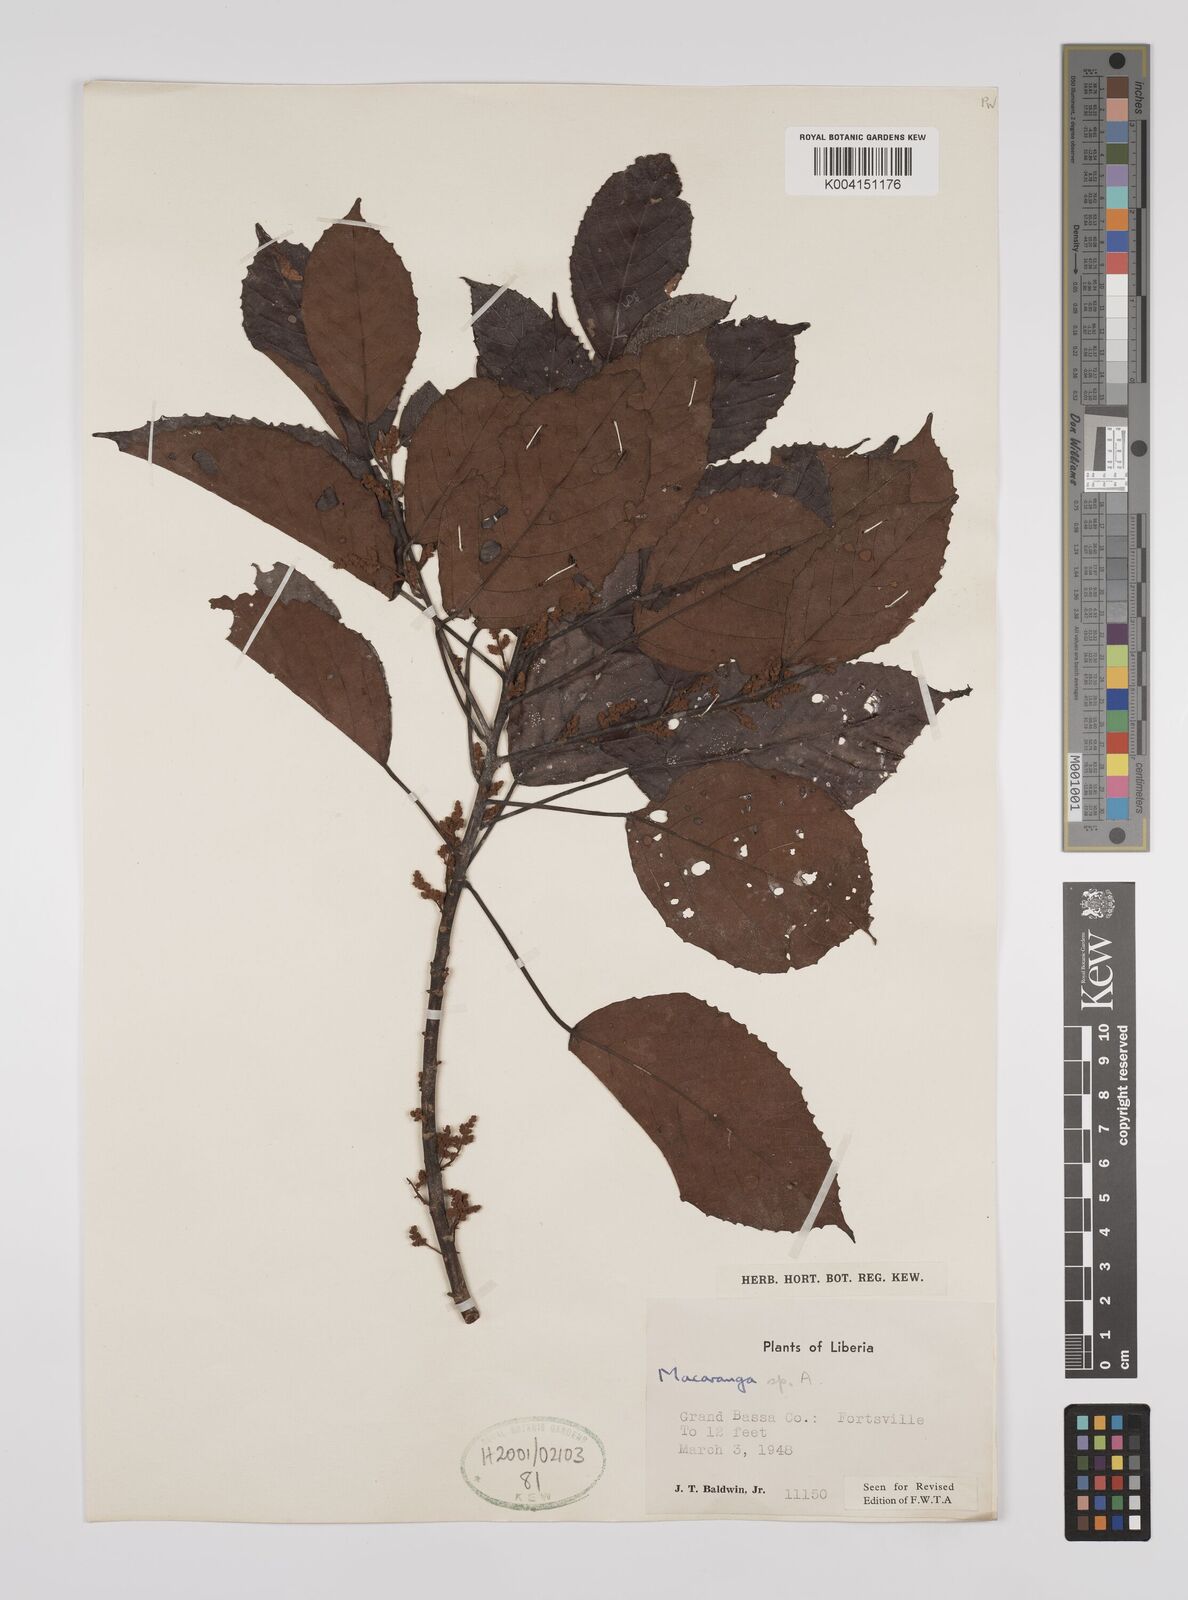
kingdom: Plantae
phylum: Tracheophyta
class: Magnoliopsida
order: Malpighiales
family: Euphorbiaceae
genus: Macaranga
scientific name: Macaranga
